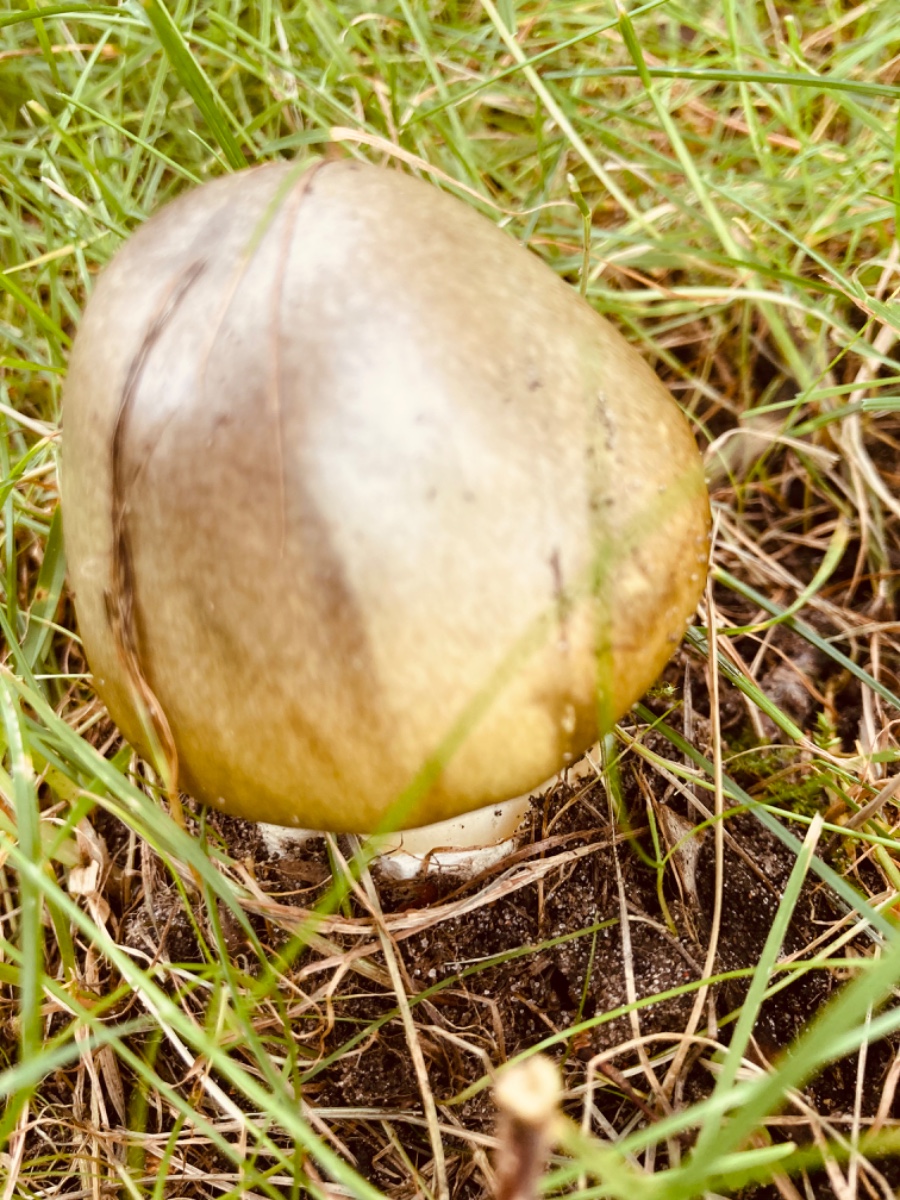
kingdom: Fungi
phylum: Basidiomycota
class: Agaricomycetes
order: Agaricales
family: Amanitaceae
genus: Amanita
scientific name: Amanita phalloides
